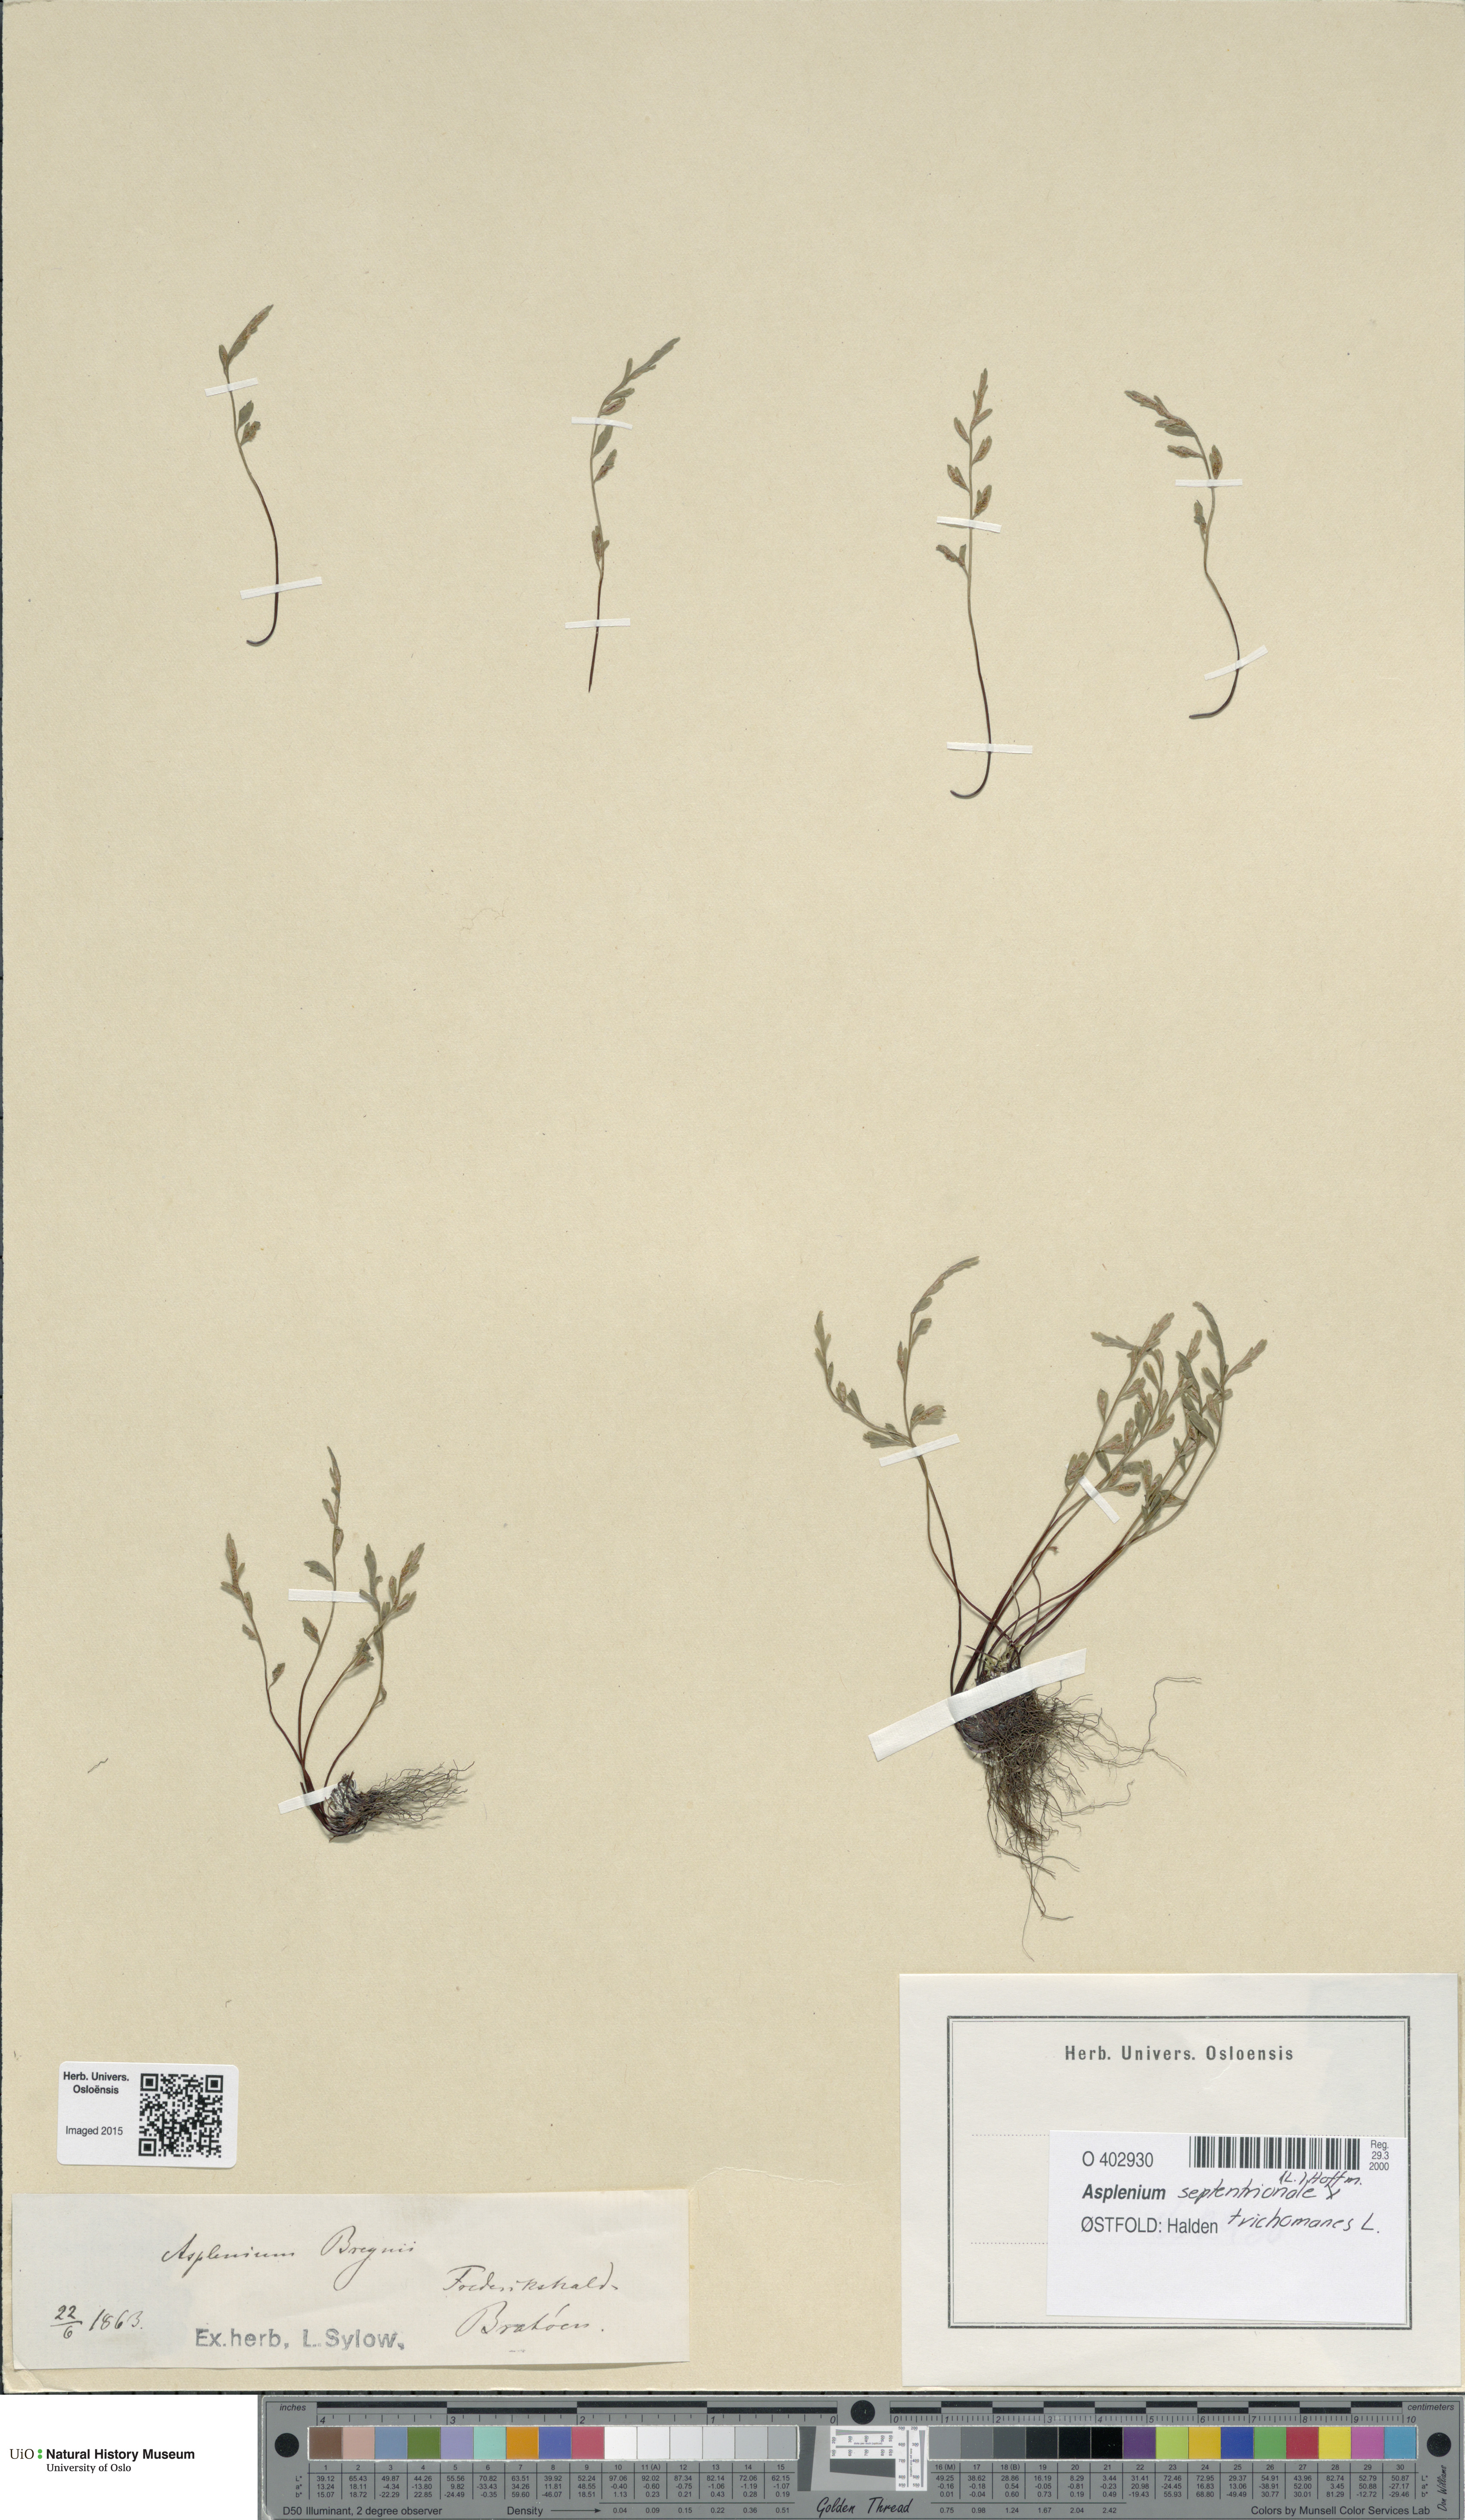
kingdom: Plantae
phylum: Tracheophyta
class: Polypodiopsida
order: Polypodiales
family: Aspleniaceae
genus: Asplenium
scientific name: Asplenium
